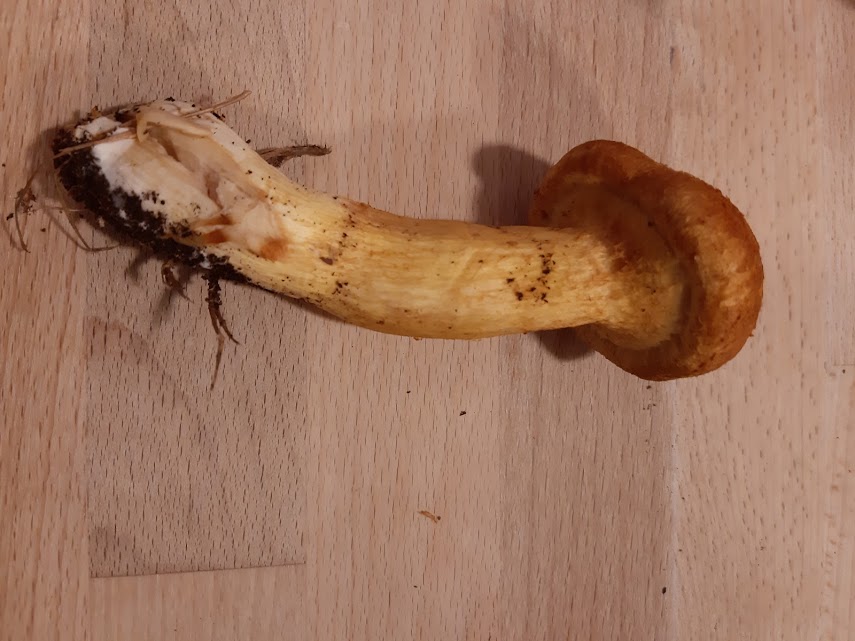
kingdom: Fungi
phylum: Basidiomycota
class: Agaricomycetes
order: Agaricales
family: Hymenogastraceae
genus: Gymnopilus
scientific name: Gymnopilus
